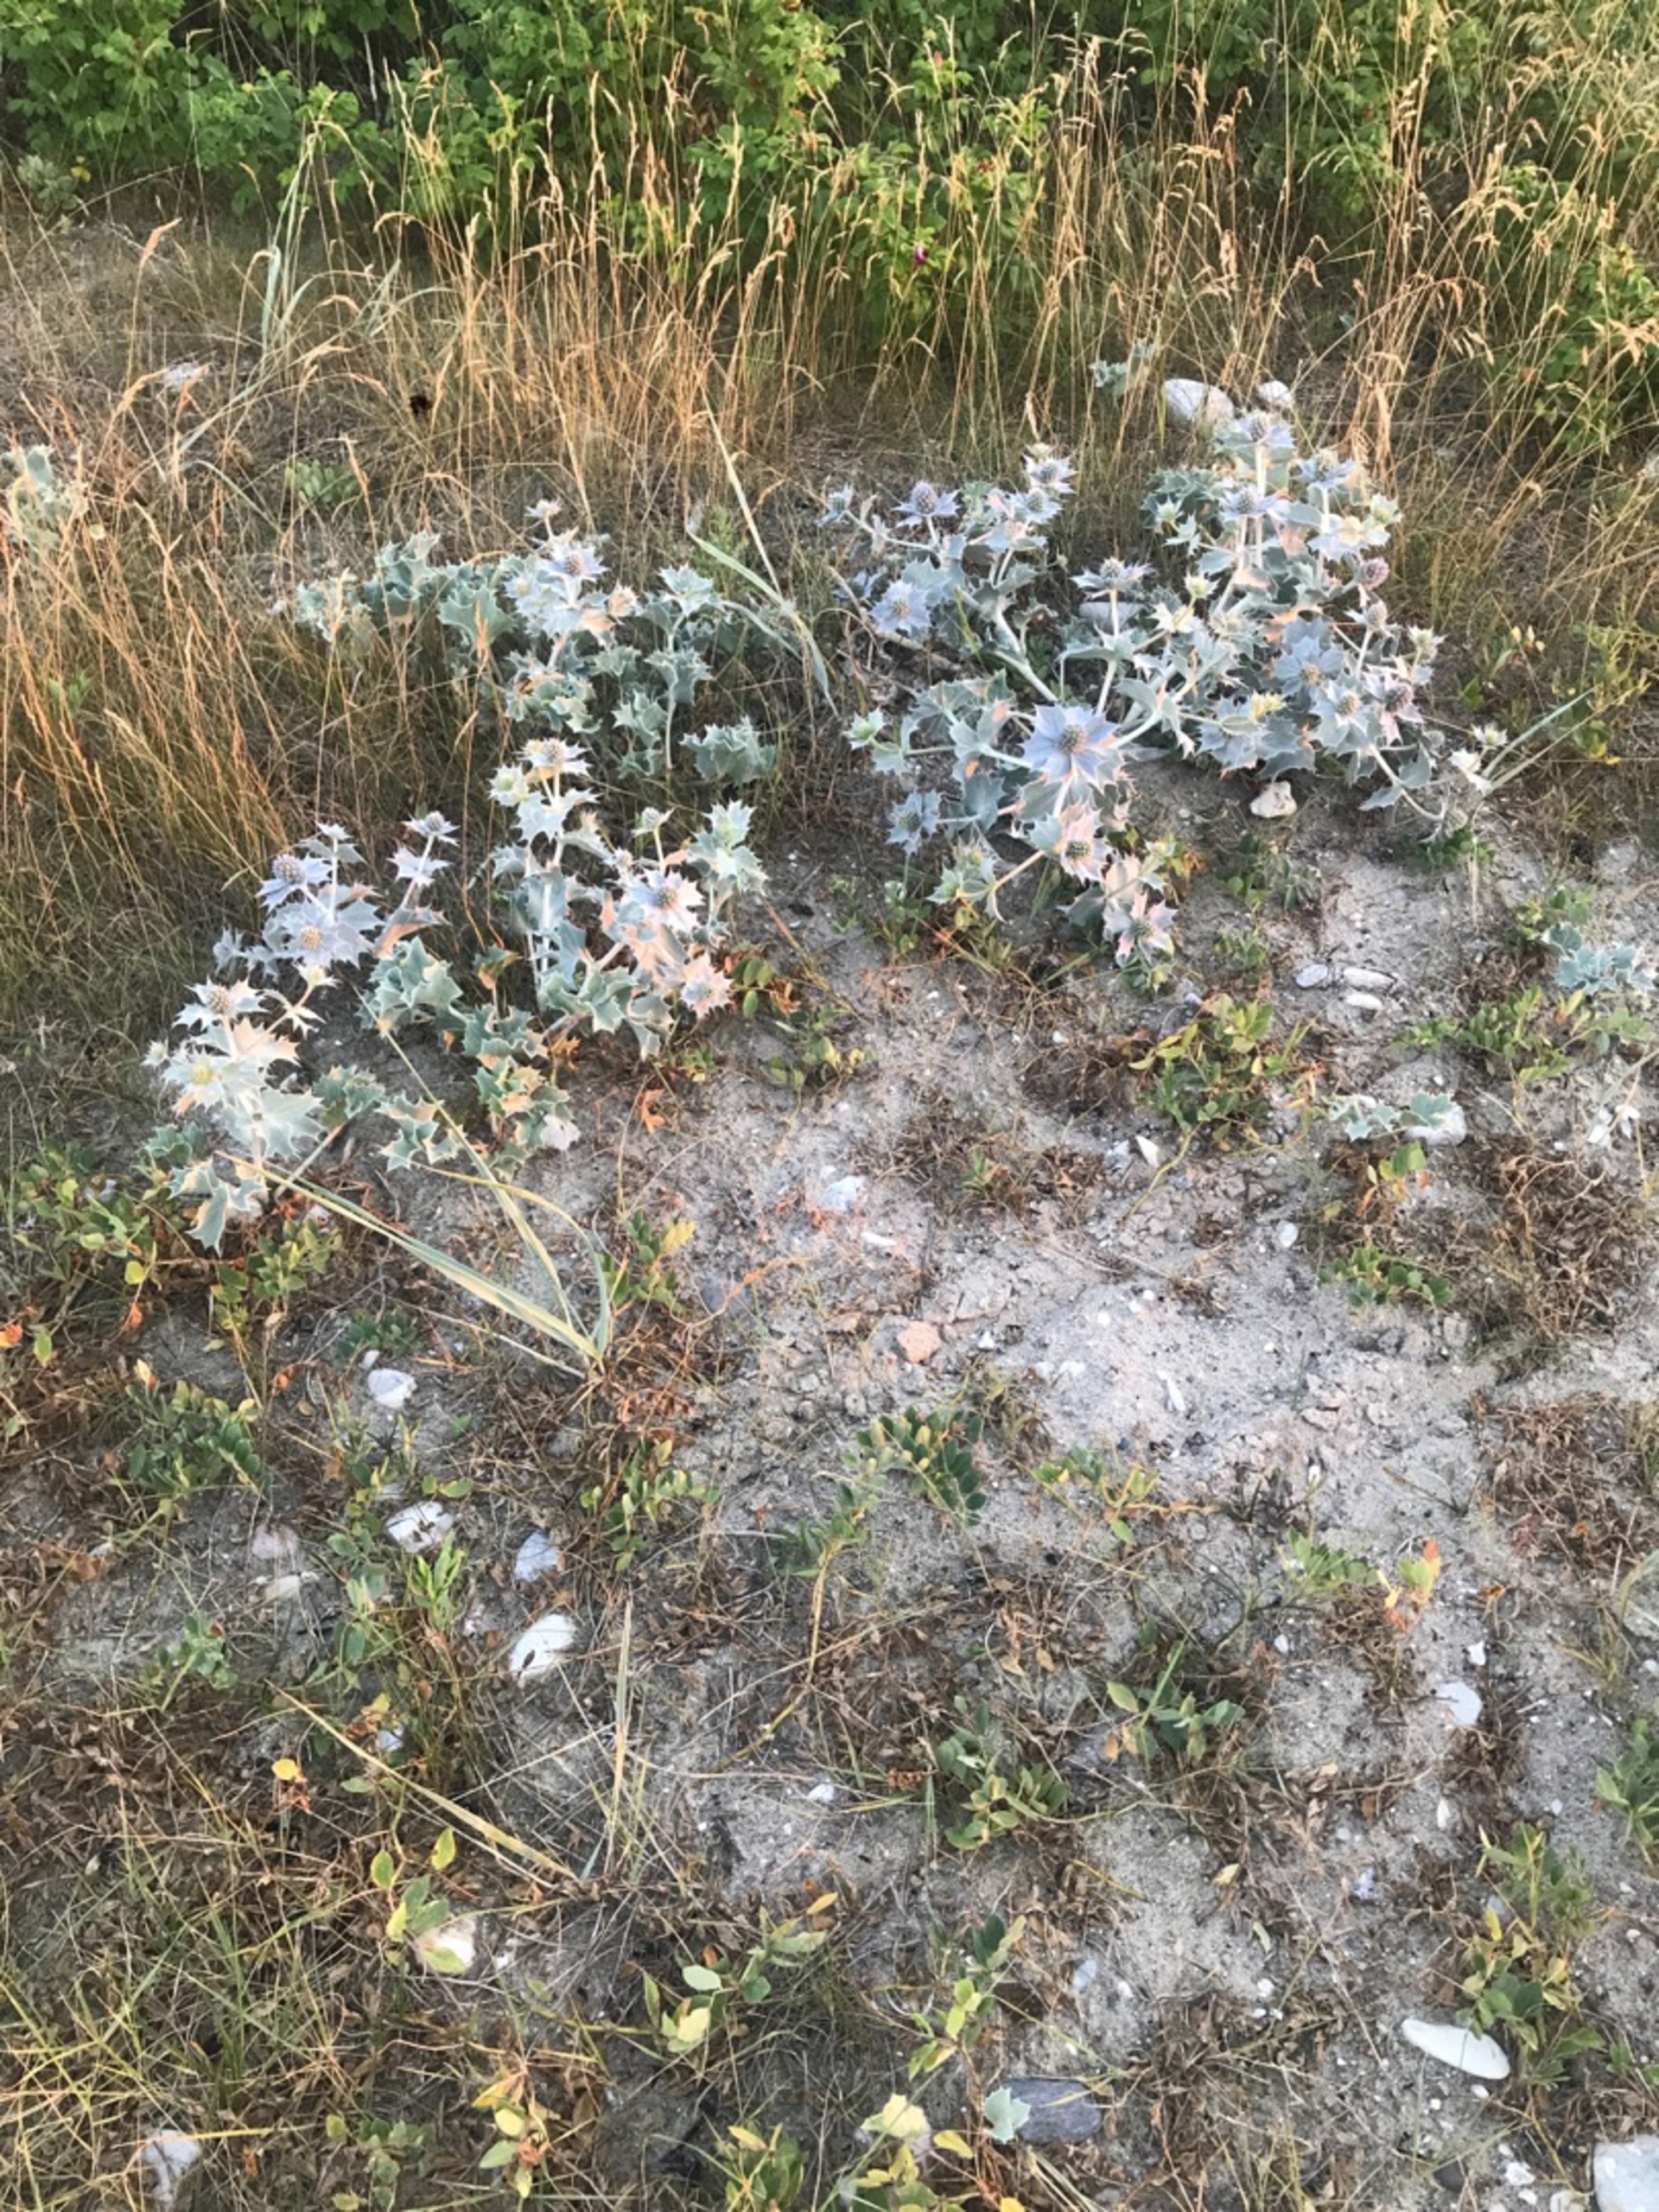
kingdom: Plantae
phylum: Tracheophyta
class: Magnoliopsida
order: Apiales
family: Apiaceae
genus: Eryngium
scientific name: Eryngium maritimum
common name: Strand-mandstro
